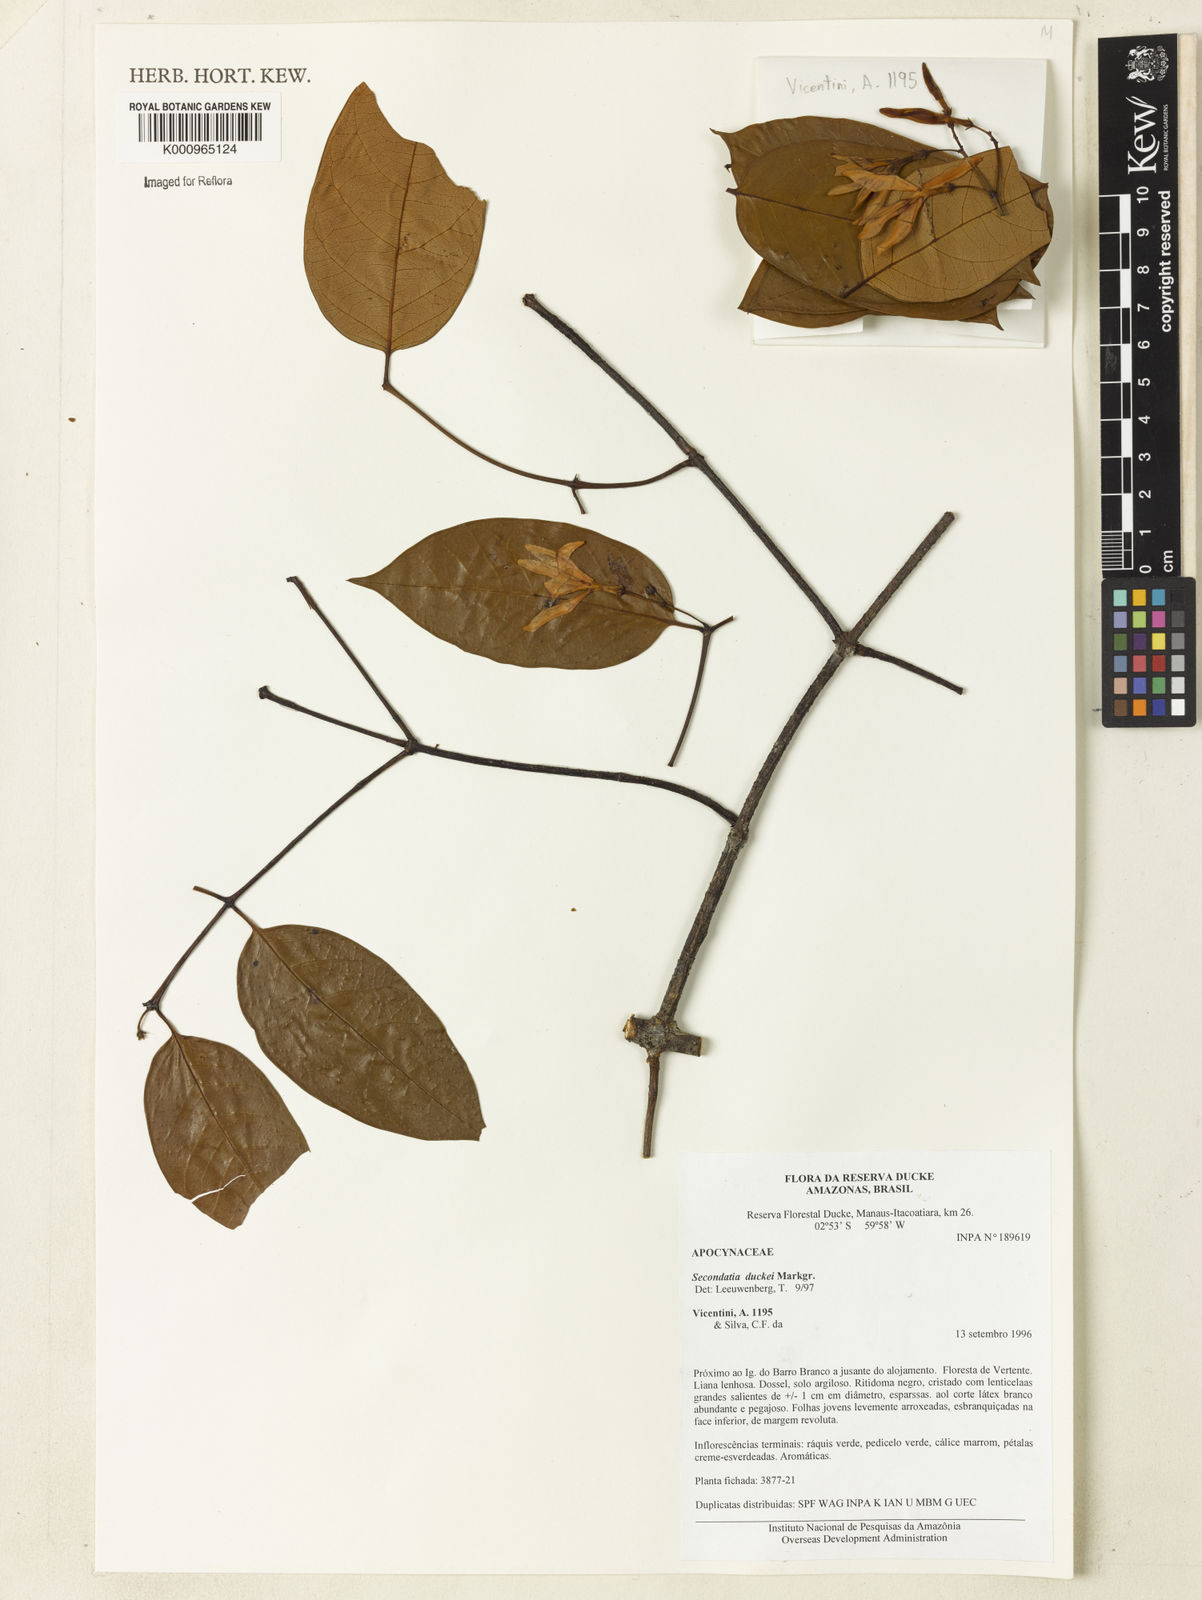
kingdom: Plantae
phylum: Tracheophyta
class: Magnoliopsida
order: Gentianales
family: Apocynaceae
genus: Secondatia
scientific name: Secondatia duckei
